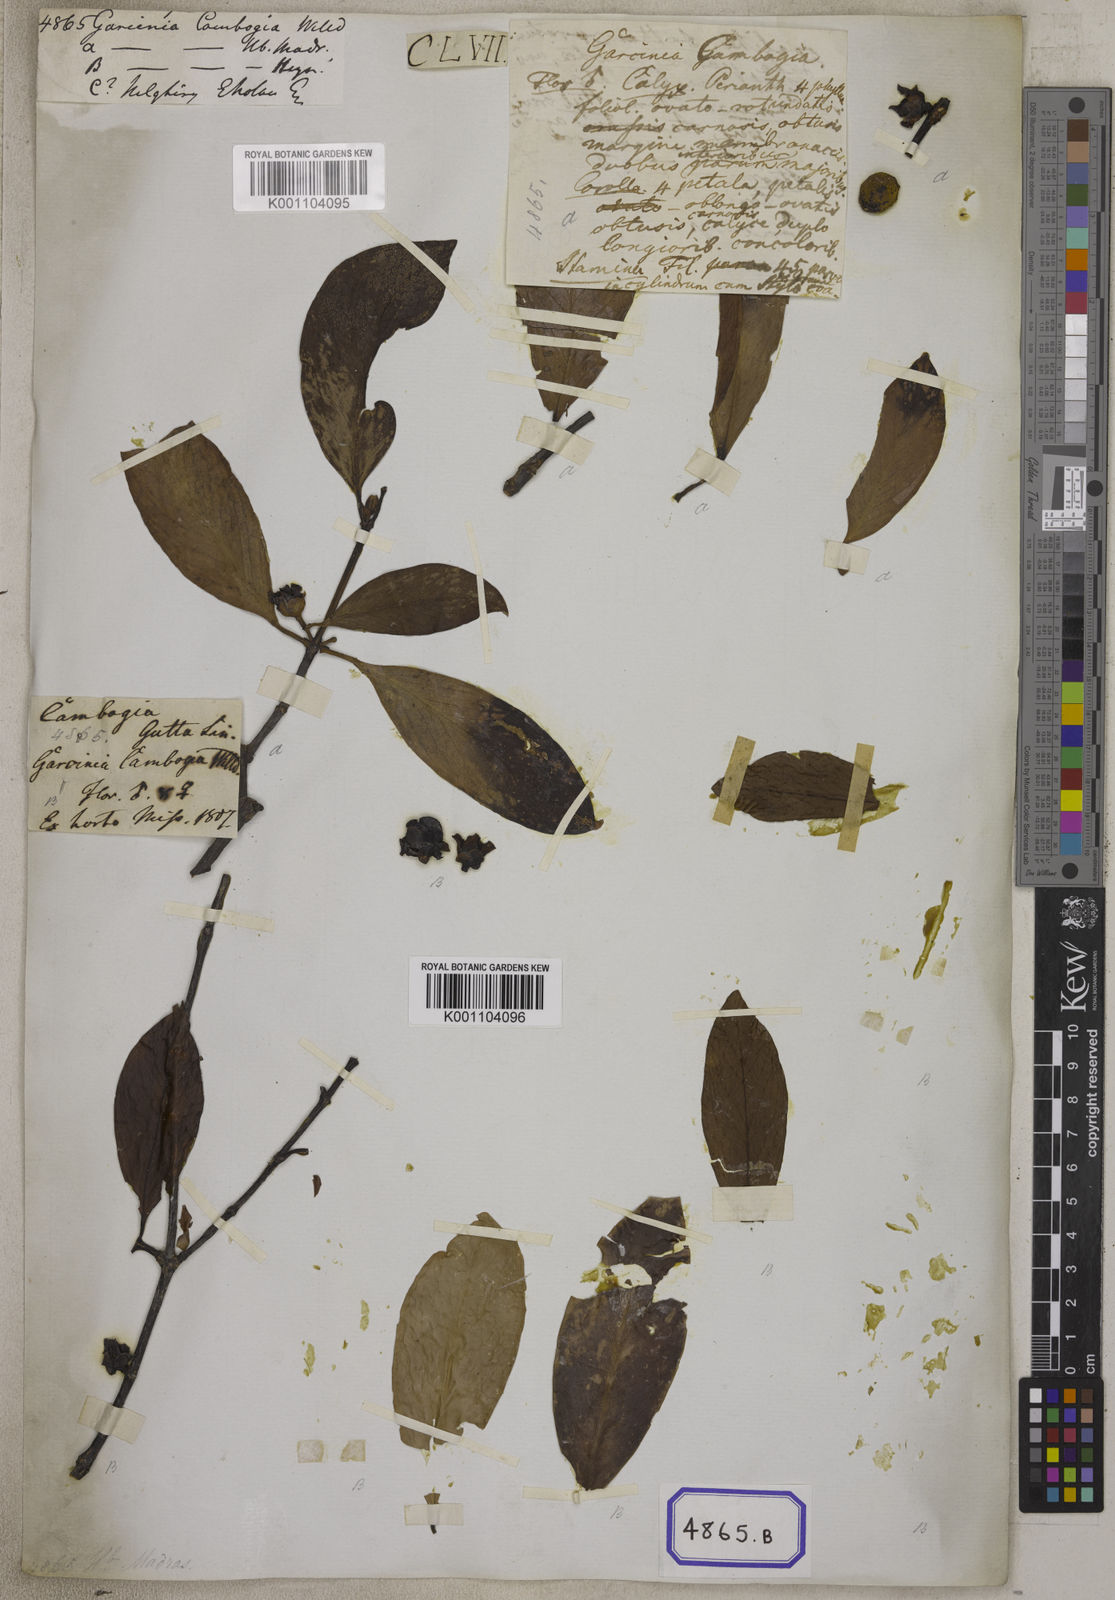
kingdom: Plantae
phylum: Tracheophyta
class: Magnoliopsida
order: Malpighiales
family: Clusiaceae
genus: Garcinia
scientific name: Garcinia gummi-gutta
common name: Malabar tamarind
